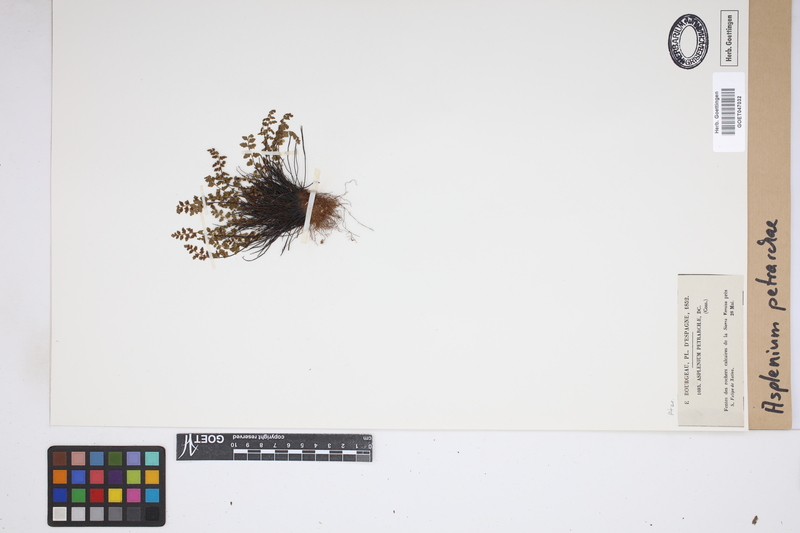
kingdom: Plantae
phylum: Tracheophyta
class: Polypodiopsida
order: Polypodiales
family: Aspleniaceae
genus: Asplenium
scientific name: Asplenium petrarchae
